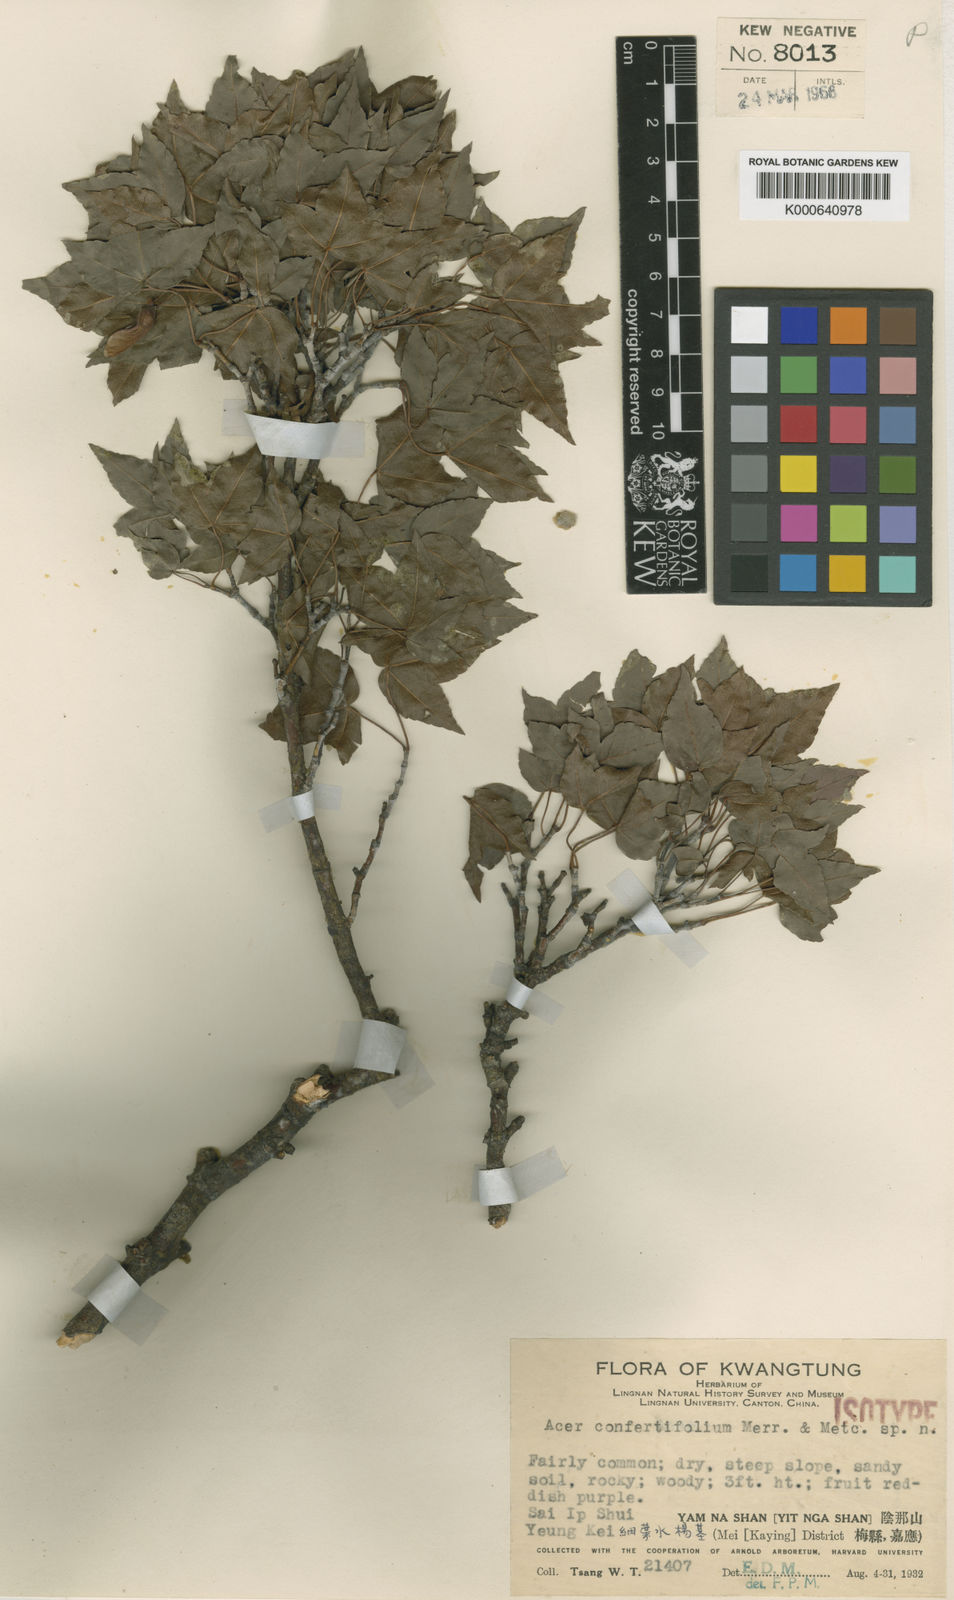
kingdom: Plantae
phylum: Tracheophyta
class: Magnoliopsida
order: Sapindales
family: Sapindaceae
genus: Acer
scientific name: Acer confertifolium
